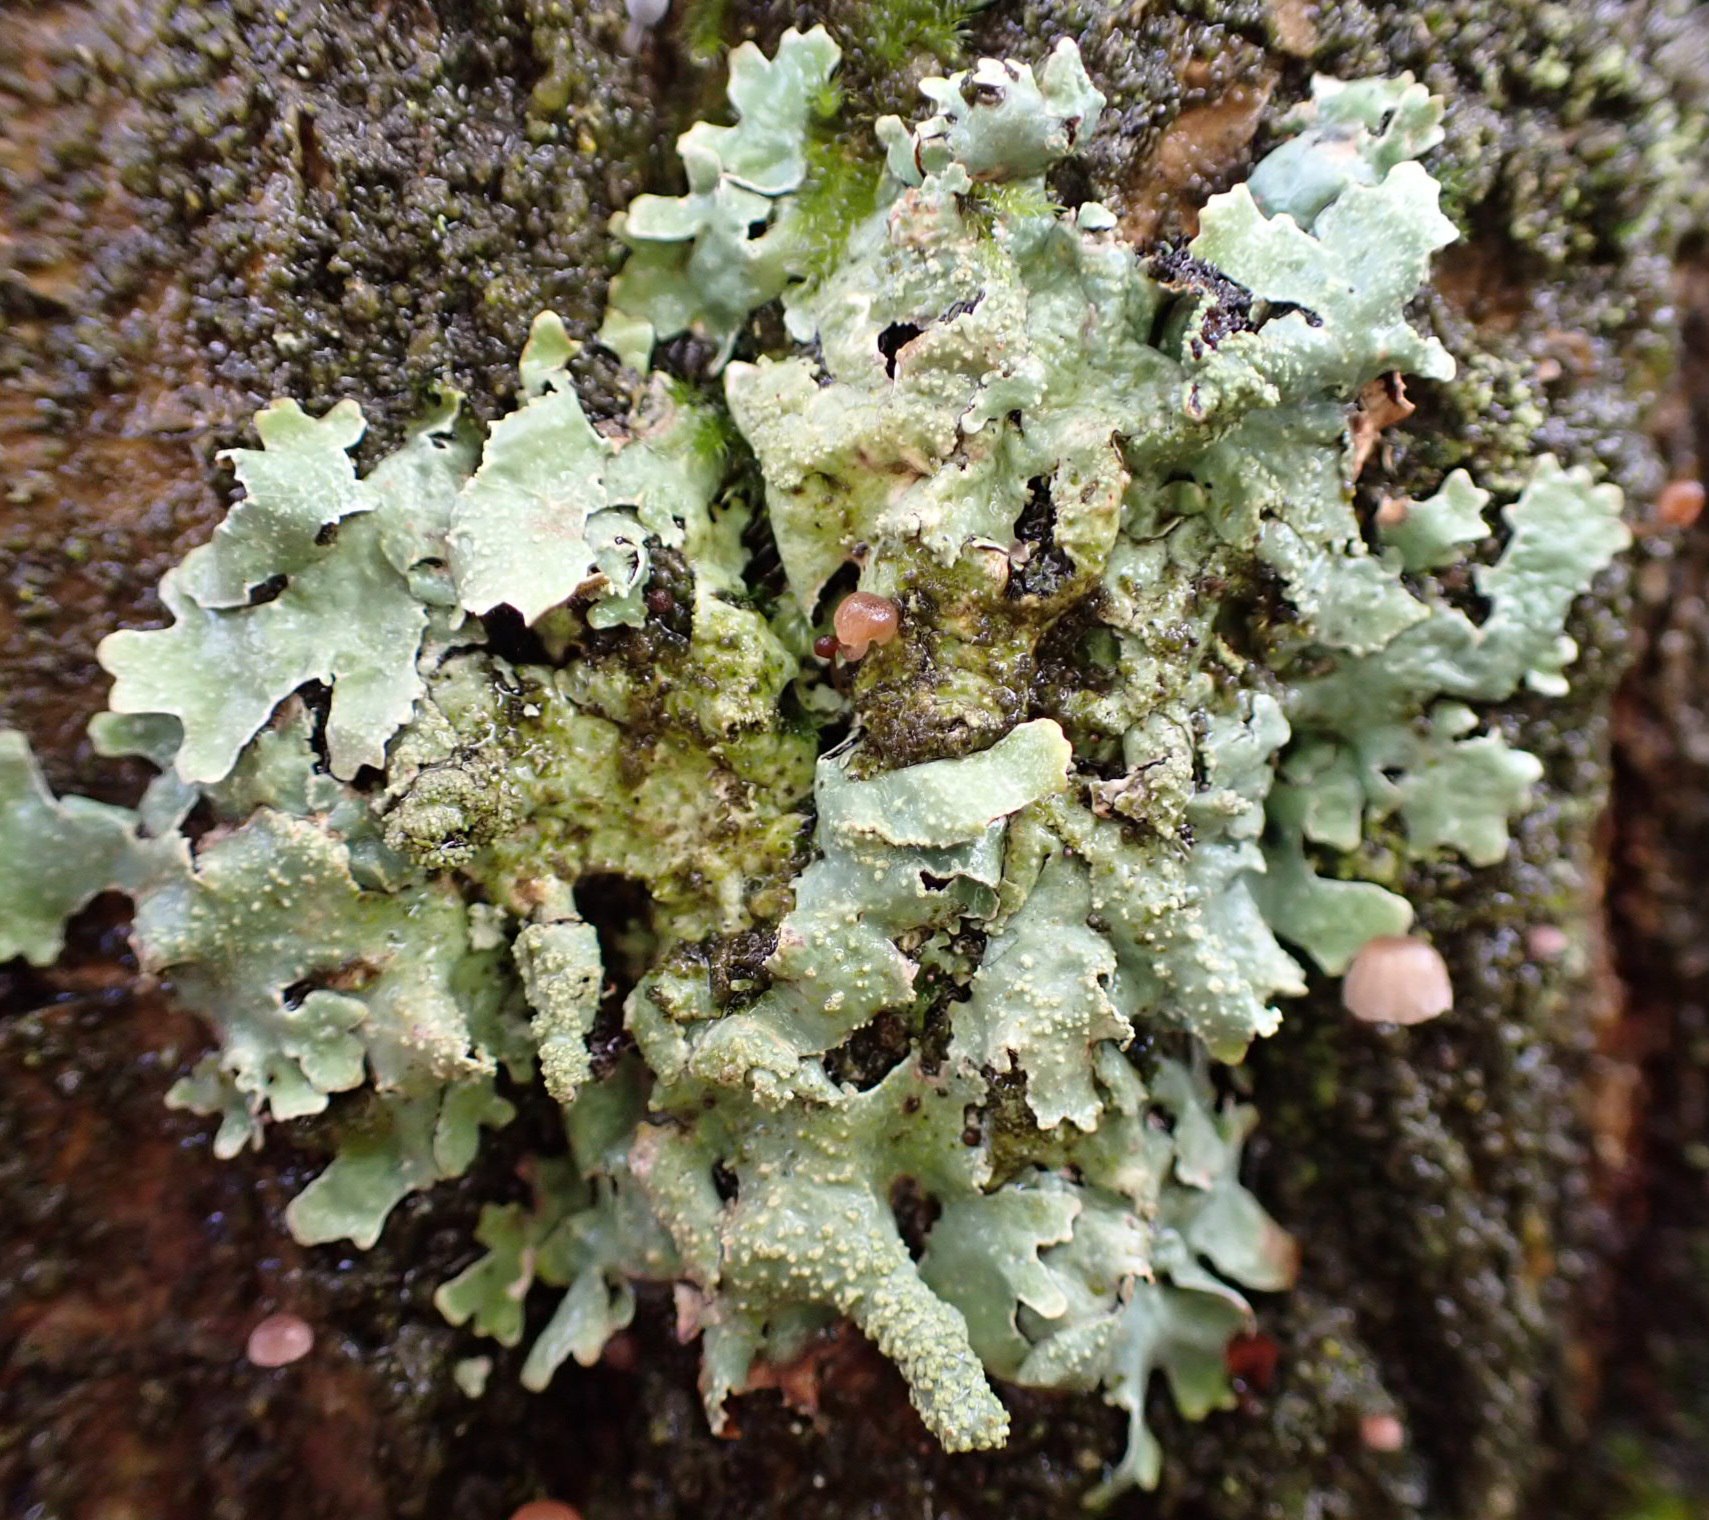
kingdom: Fungi
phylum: Ascomycota
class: Lecanoromycetes
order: Lecanorales
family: Parmeliaceae
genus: Parmelia
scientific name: Parmelia submontana
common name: langlobet skållav
